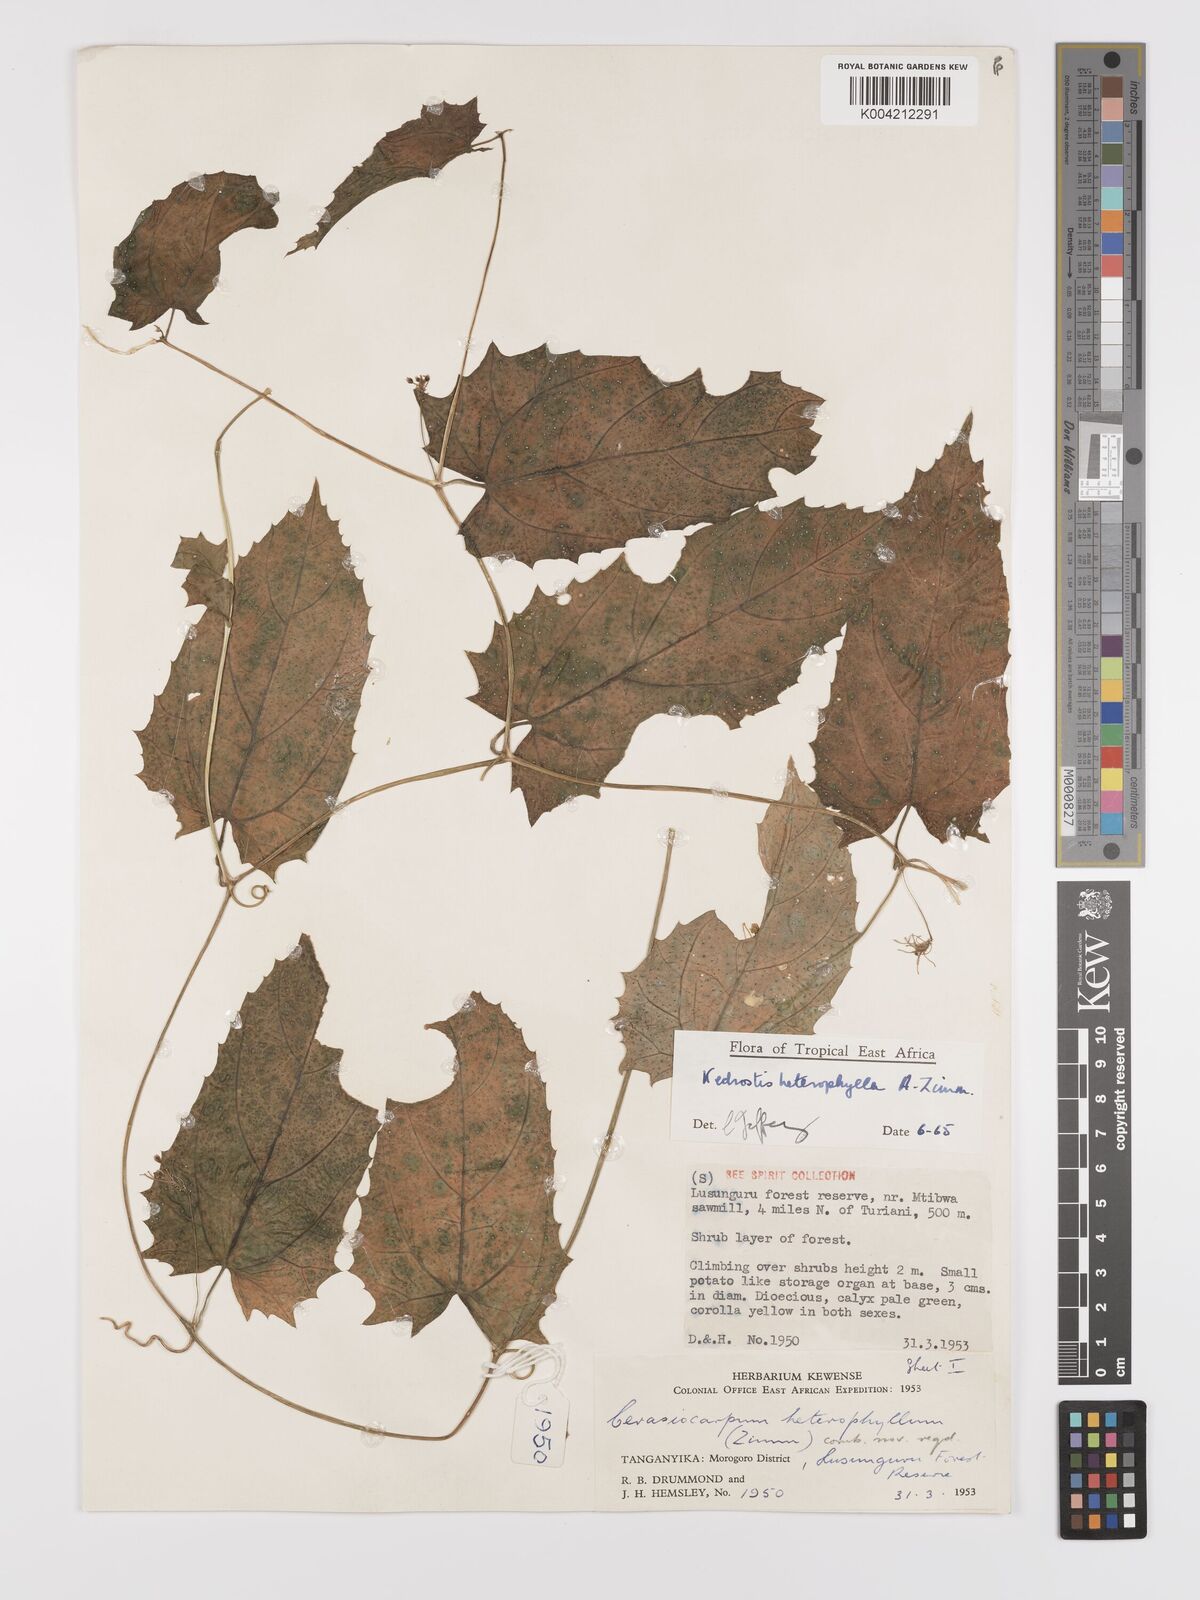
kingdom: Plantae
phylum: Tracheophyta
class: Magnoliopsida
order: Cucurbitales
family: Cucurbitaceae
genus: Kedrostis
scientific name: Kedrostis heterophylla
